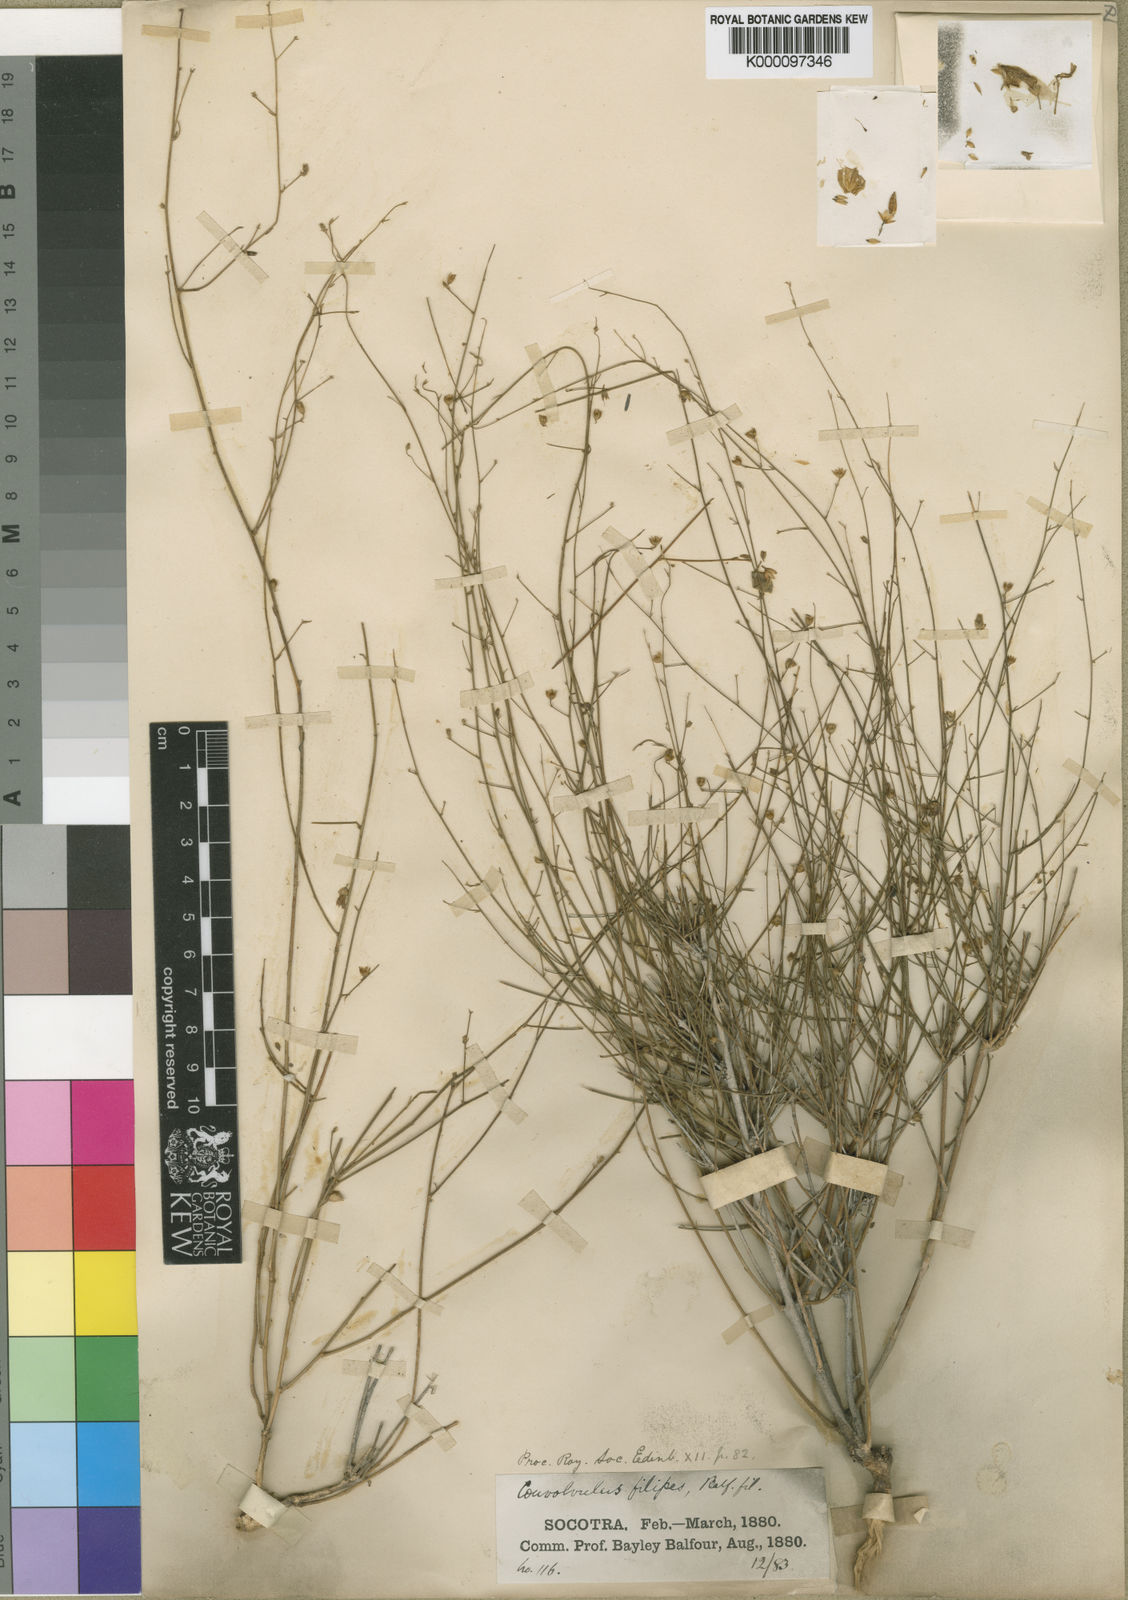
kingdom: Plantae
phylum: Tracheophyta
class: Magnoliopsida
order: Solanales
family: Convolvulaceae
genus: Convolvulus
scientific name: Convolvulus hildebrandtii
